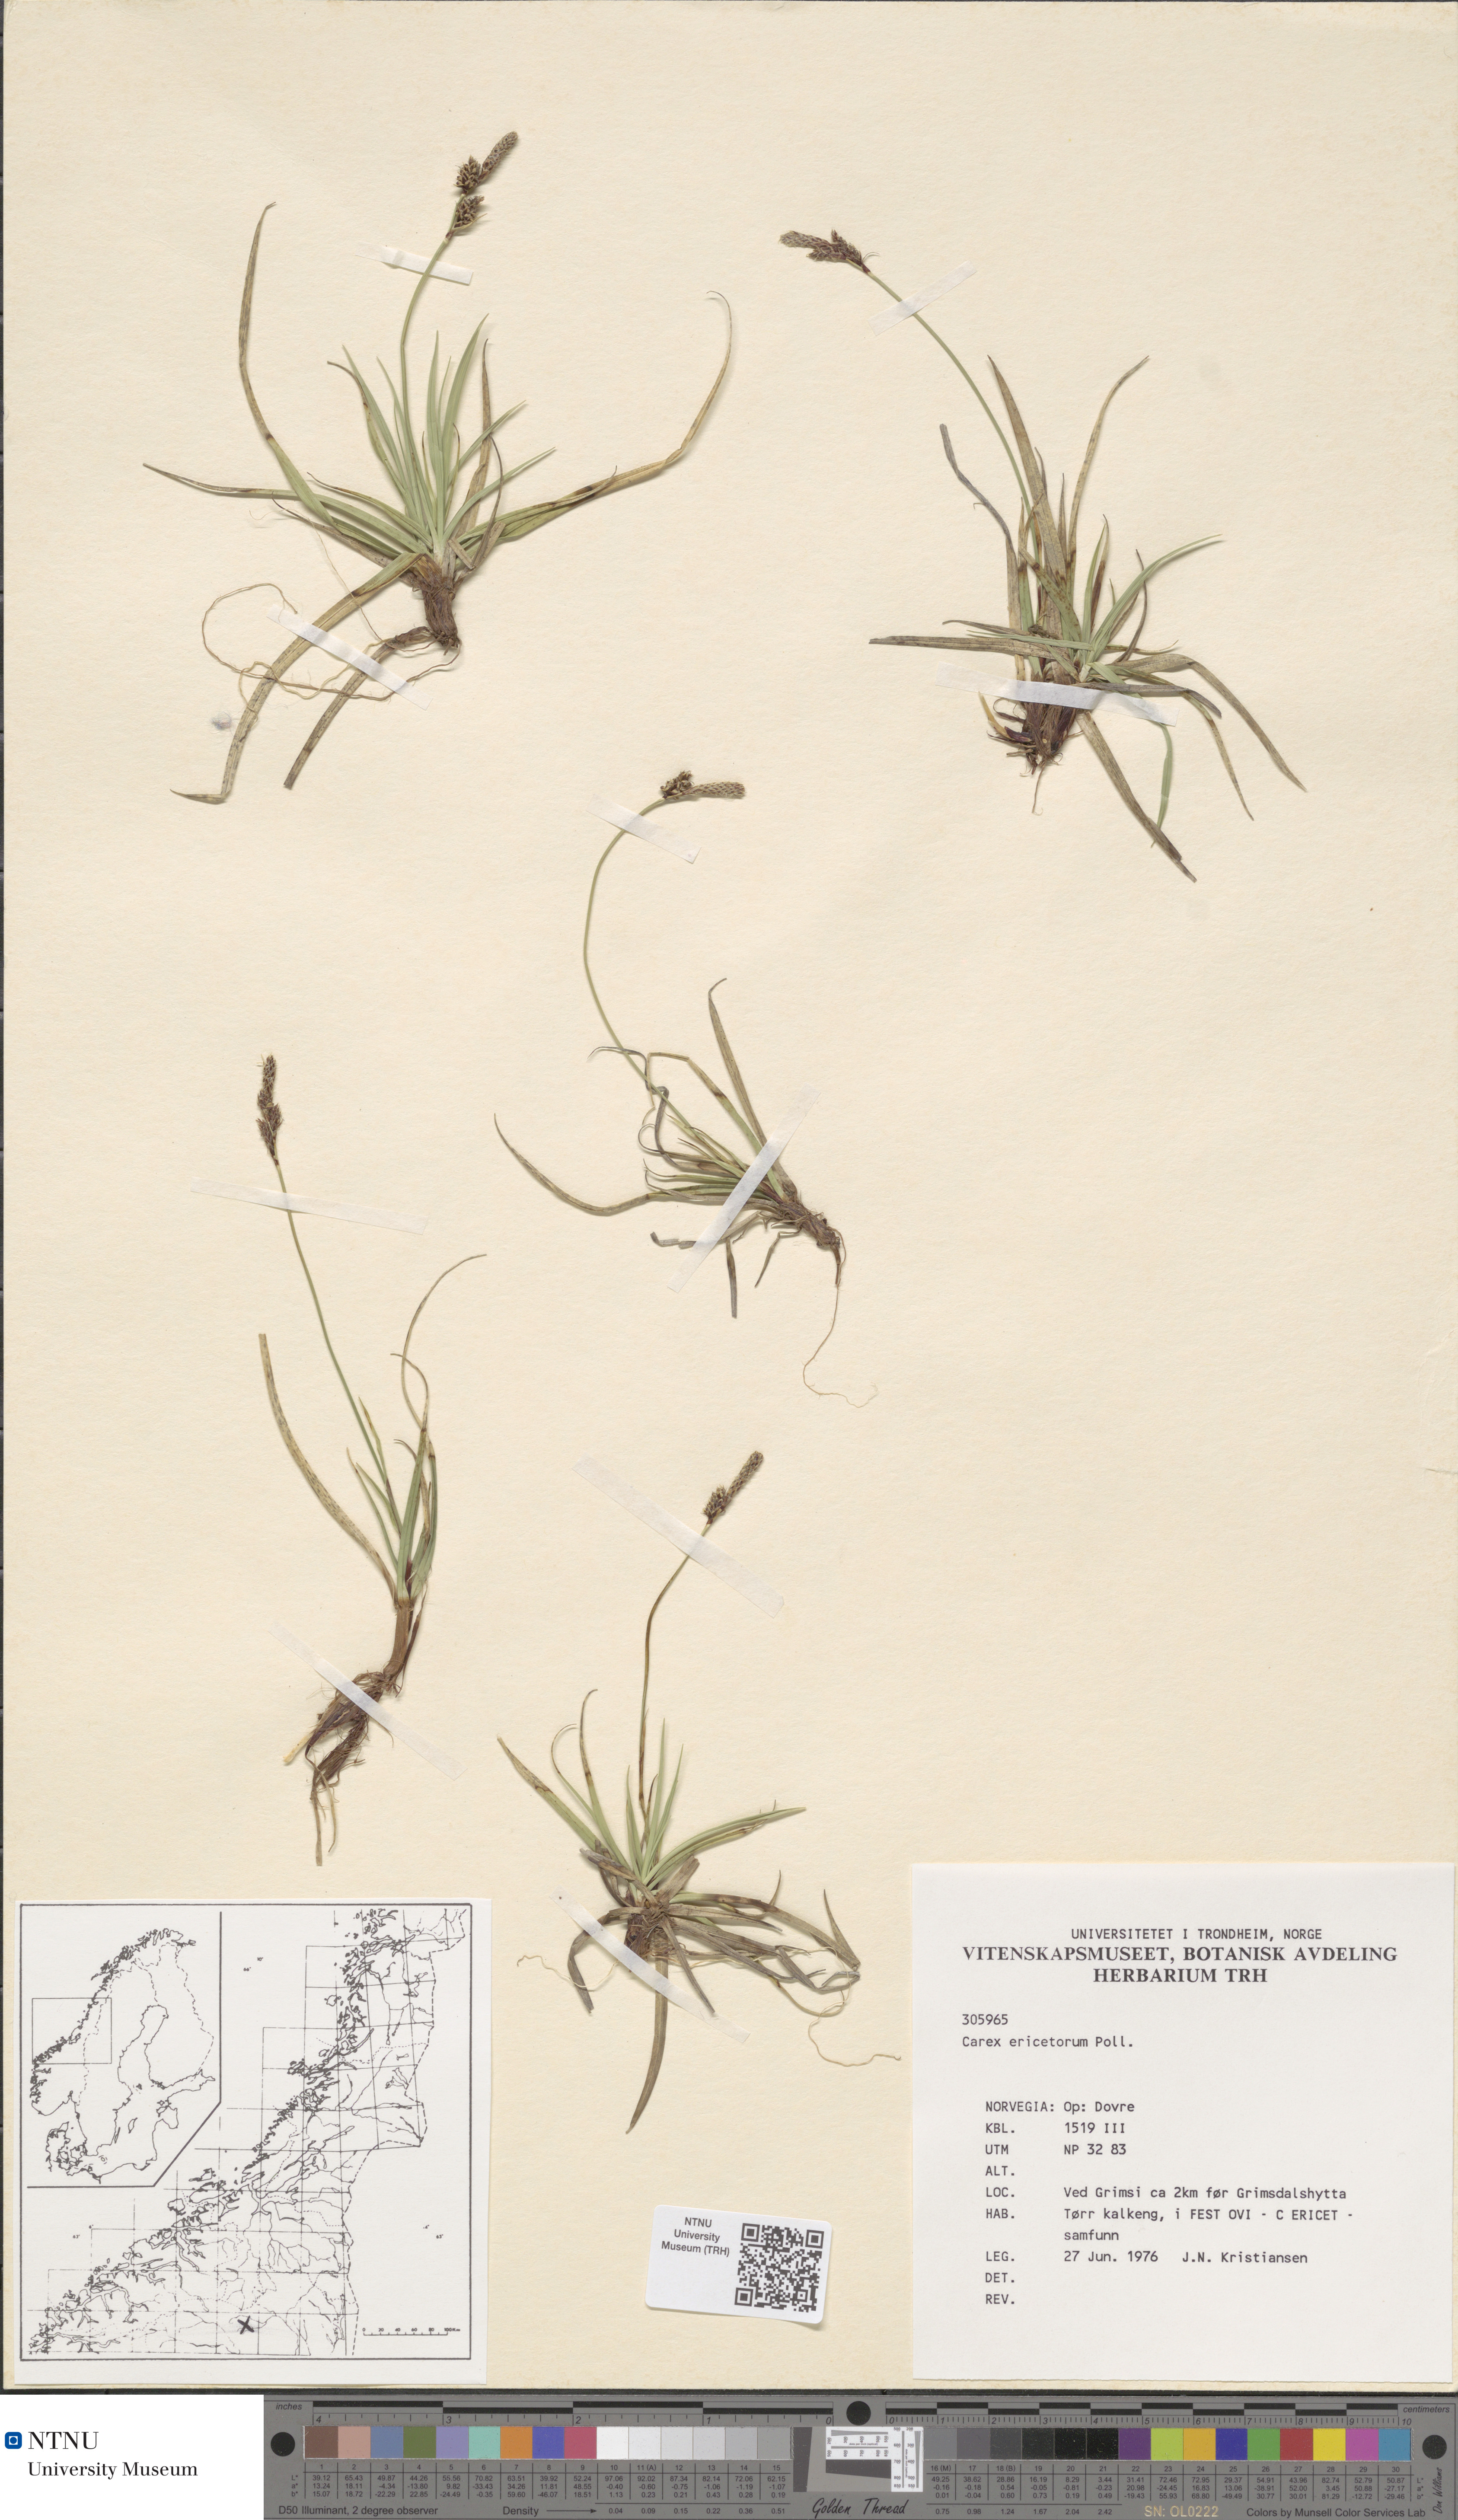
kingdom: Plantae
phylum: Tracheophyta
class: Liliopsida
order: Poales
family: Cyperaceae
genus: Carex
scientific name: Carex ericetorum
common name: Rare spring-sedge
